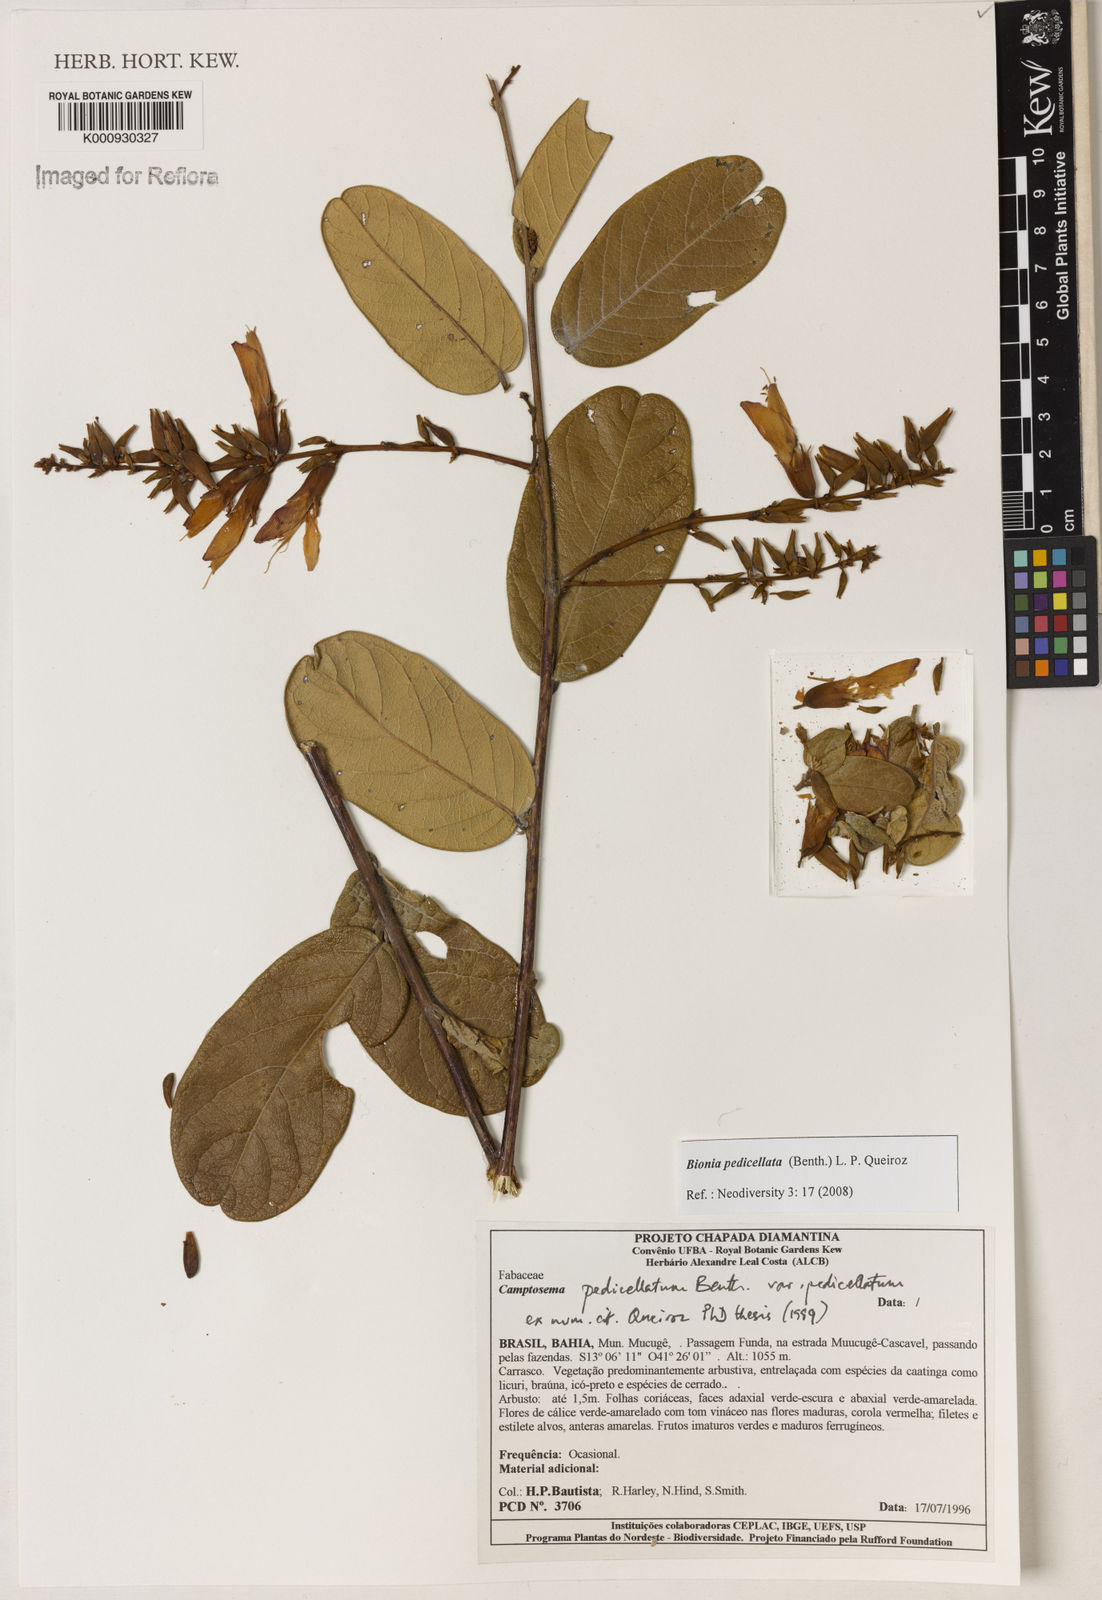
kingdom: Plantae
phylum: Tracheophyta
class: Magnoliopsida
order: Fabales
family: Fabaceae
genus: Camptosema
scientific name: Camptosema pedicellatum
